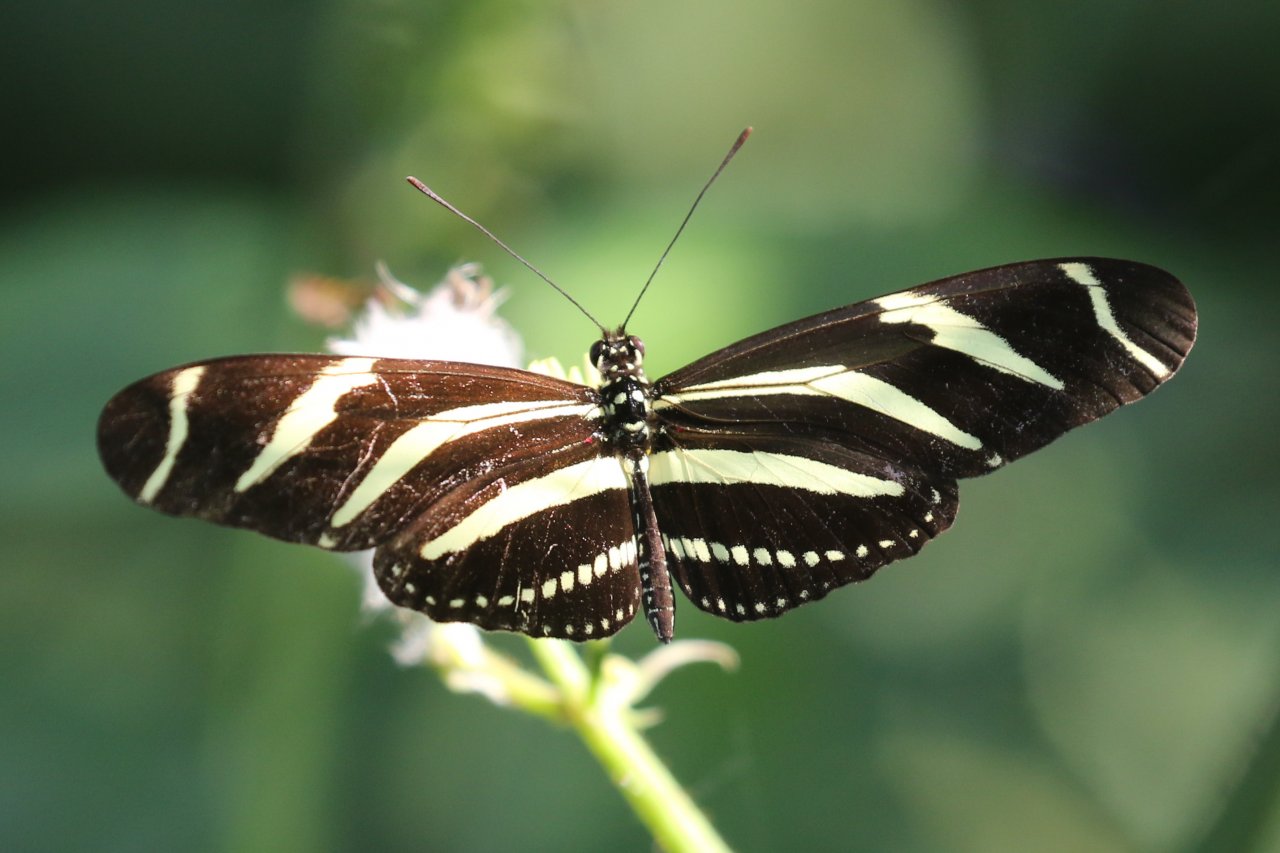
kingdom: Animalia
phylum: Arthropoda
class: Insecta
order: Lepidoptera
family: Nymphalidae
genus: Heliconius
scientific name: Heliconius charithonia
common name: Zebra Longwing
